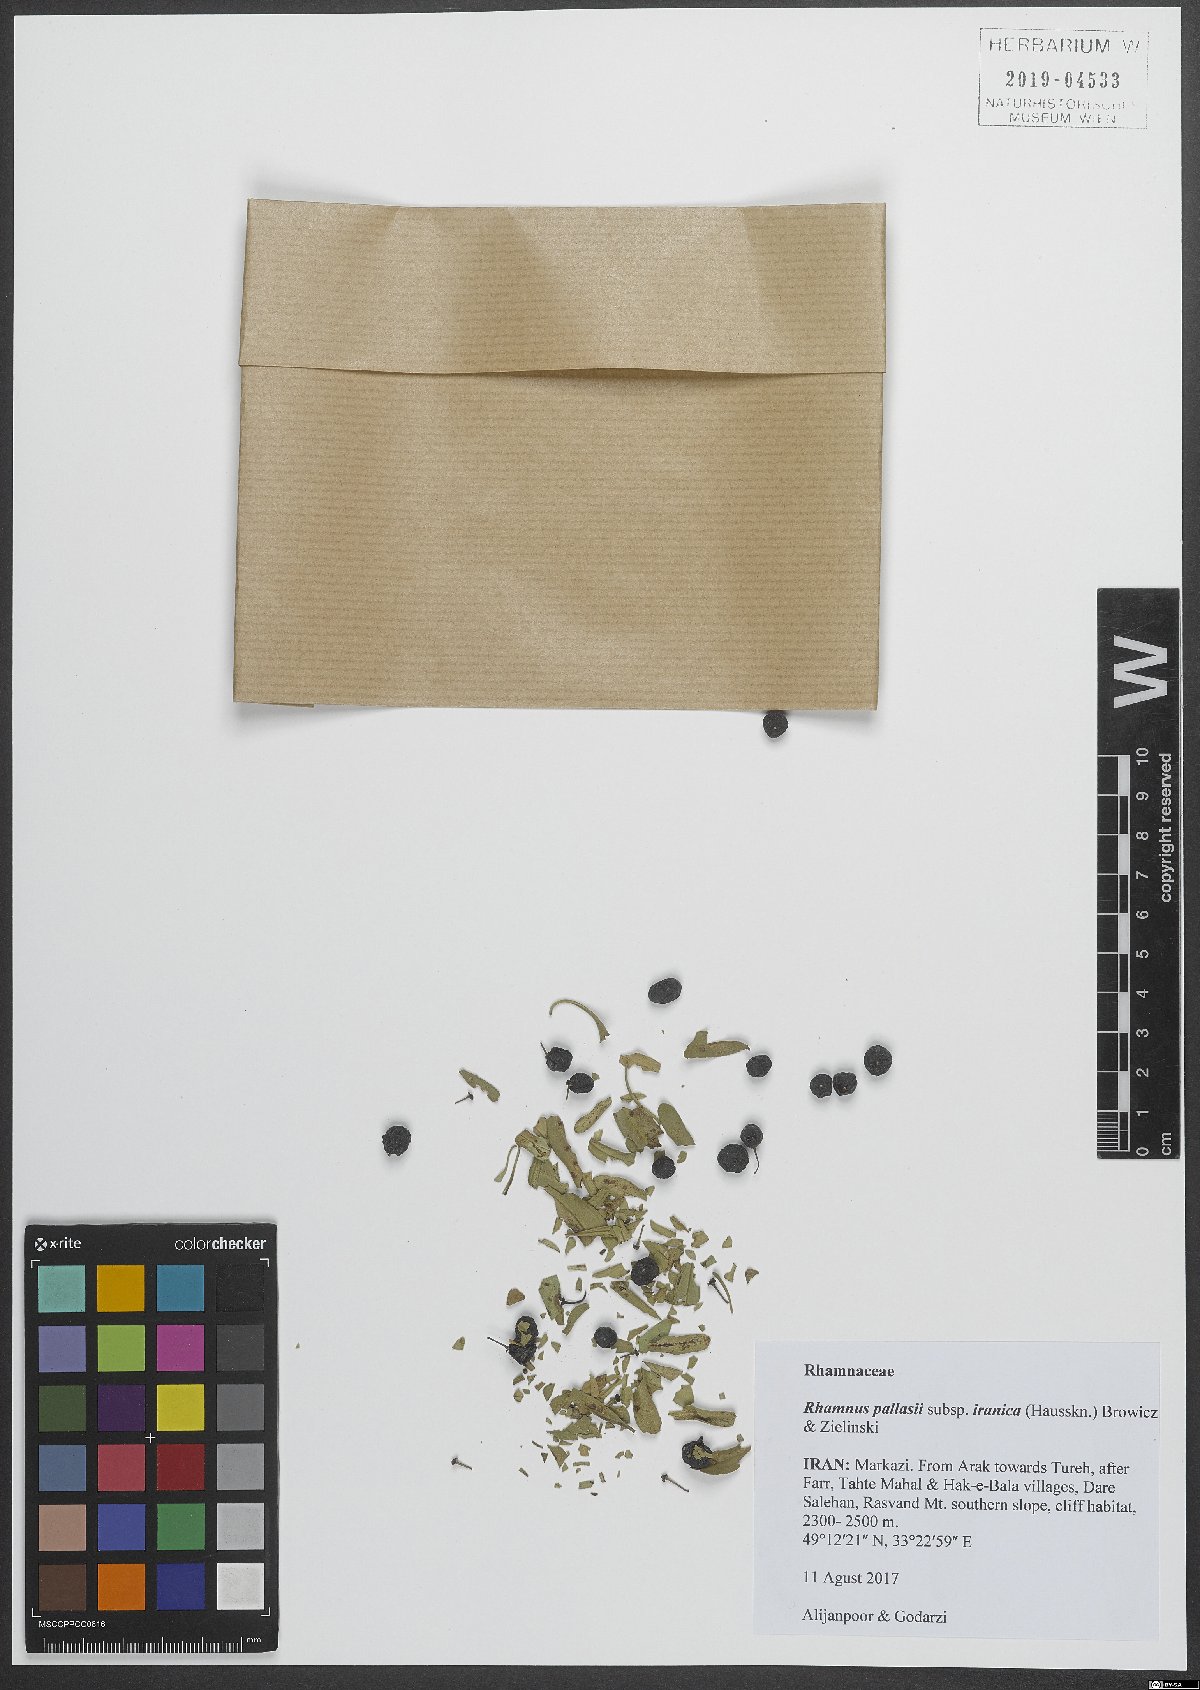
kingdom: Plantae
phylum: Tracheophyta
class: Magnoliopsida
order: Rosales
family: Rhamnaceae
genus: Rhamnus
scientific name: Rhamnus erythroxyloides
